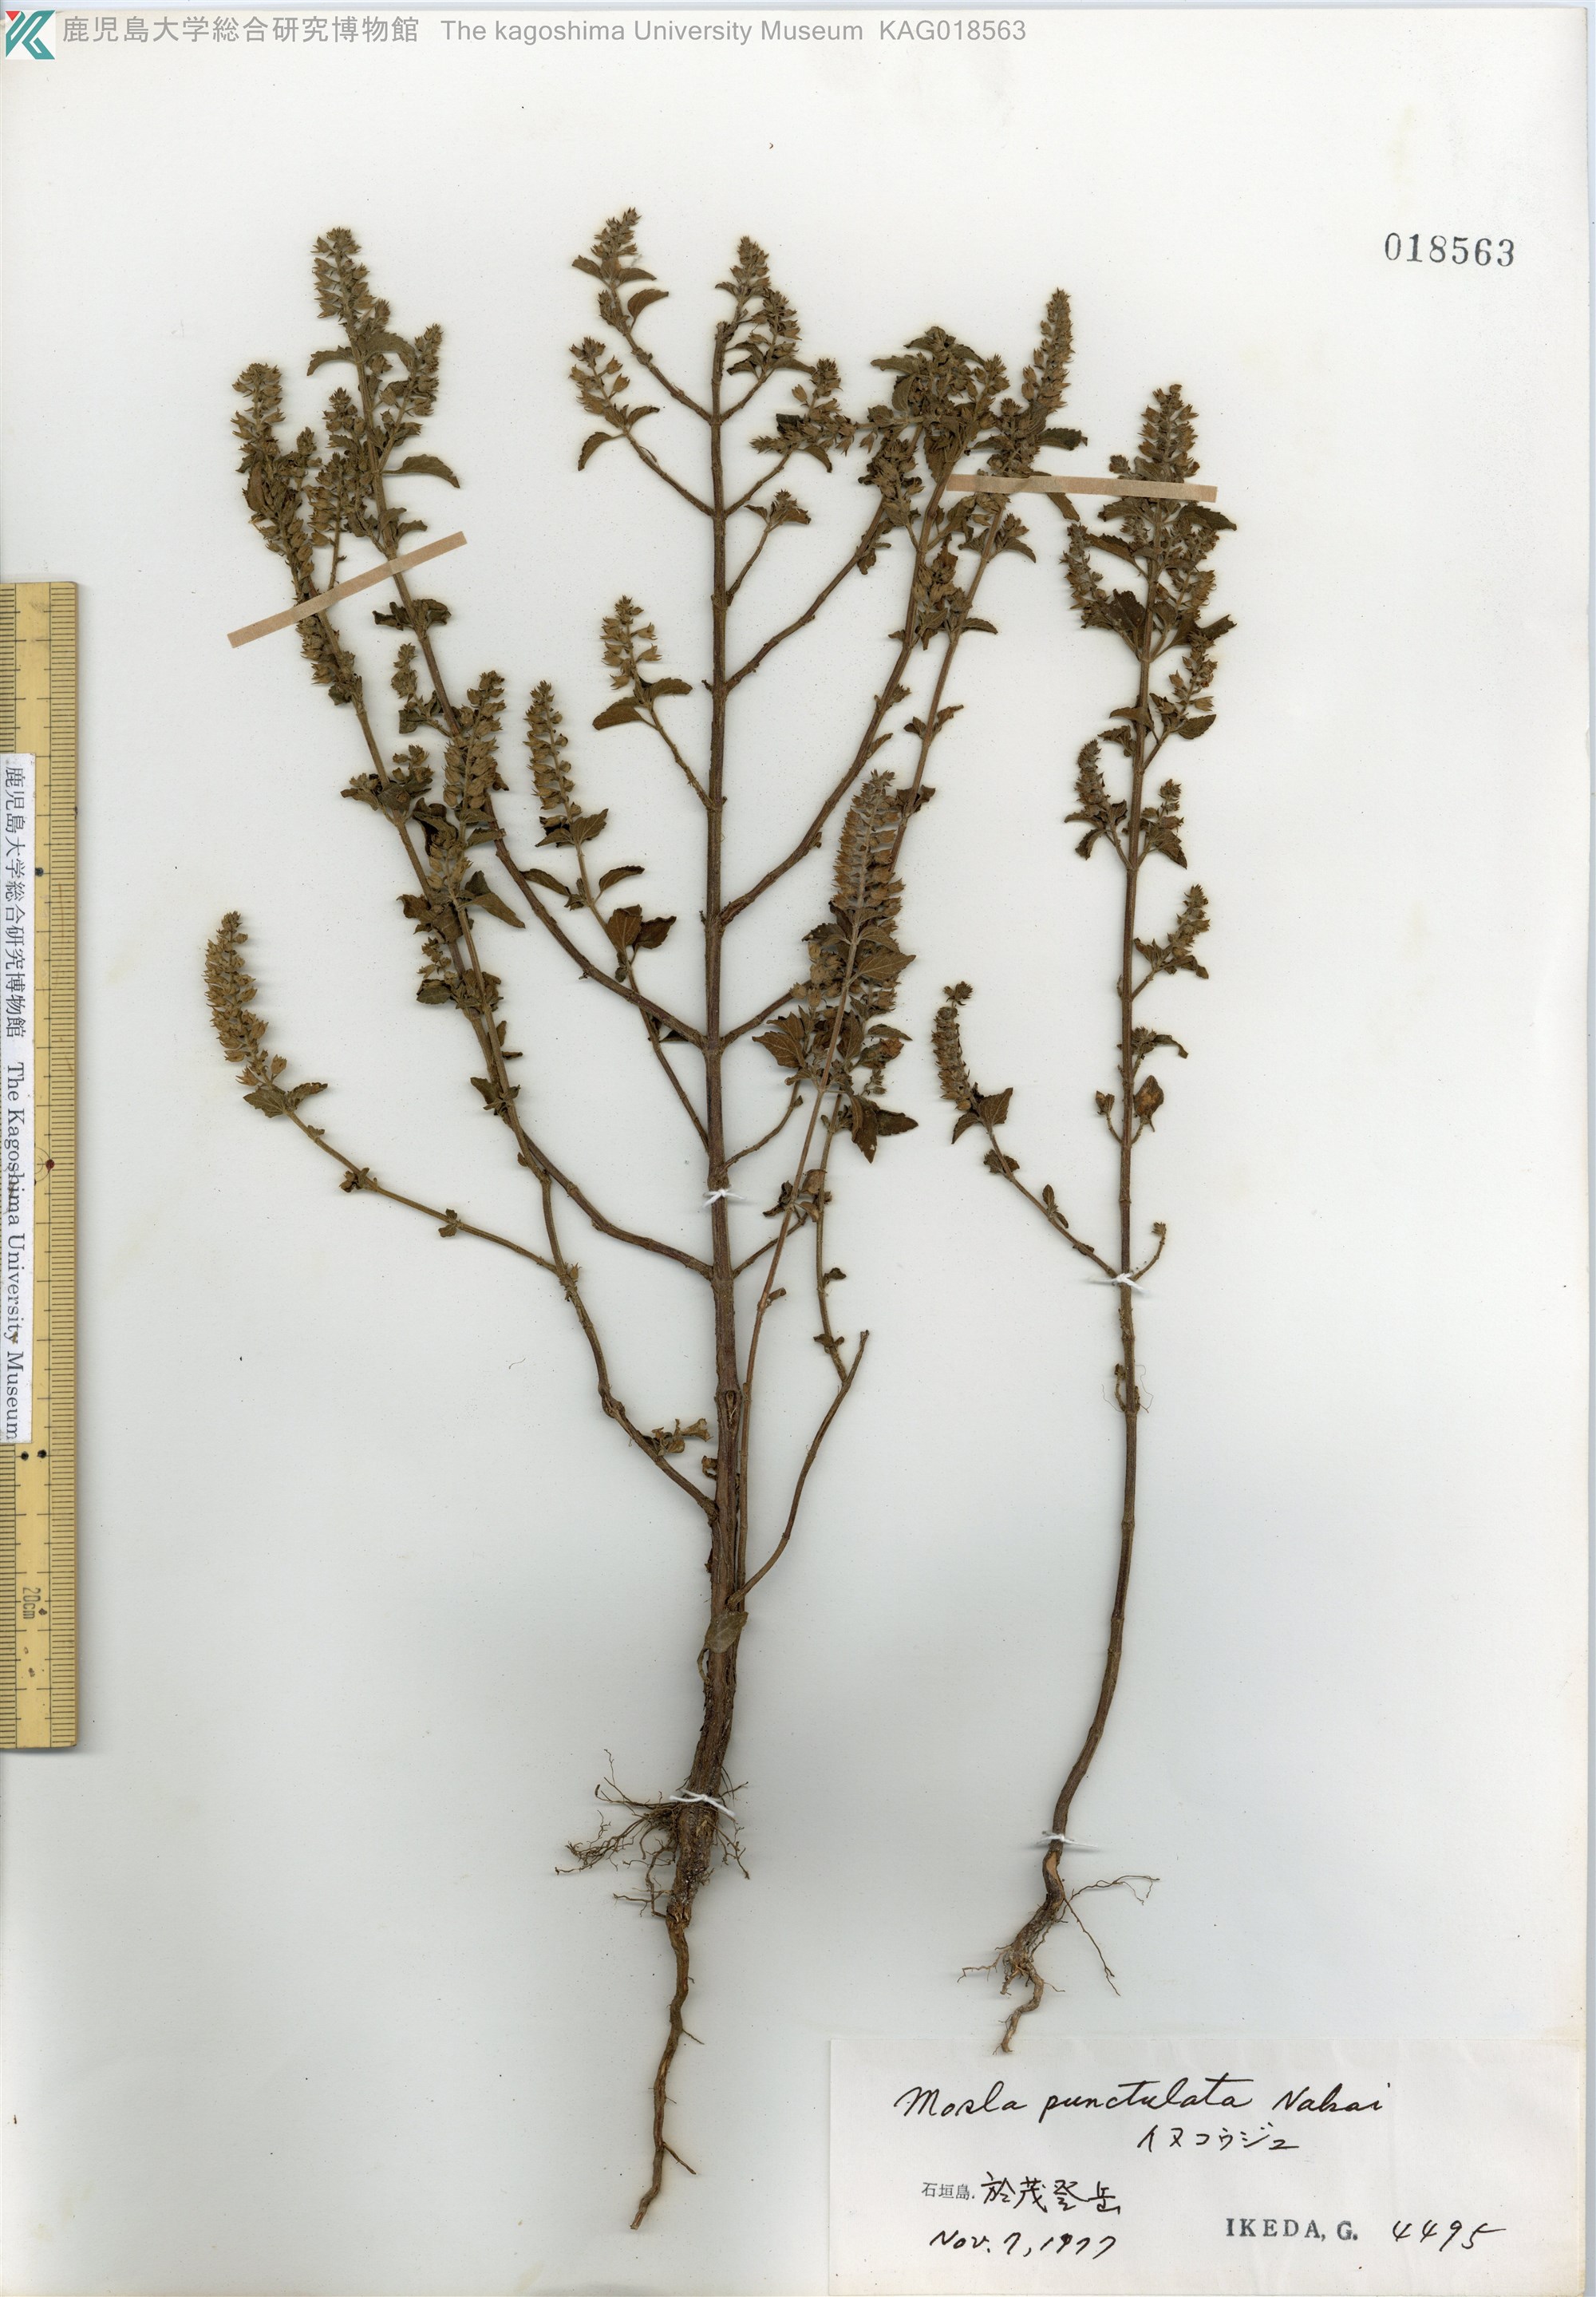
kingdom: Plantae
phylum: Tracheophyta
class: Magnoliopsida
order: Lamiales
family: Lamiaceae
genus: Mosla
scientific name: Mosla scabra
